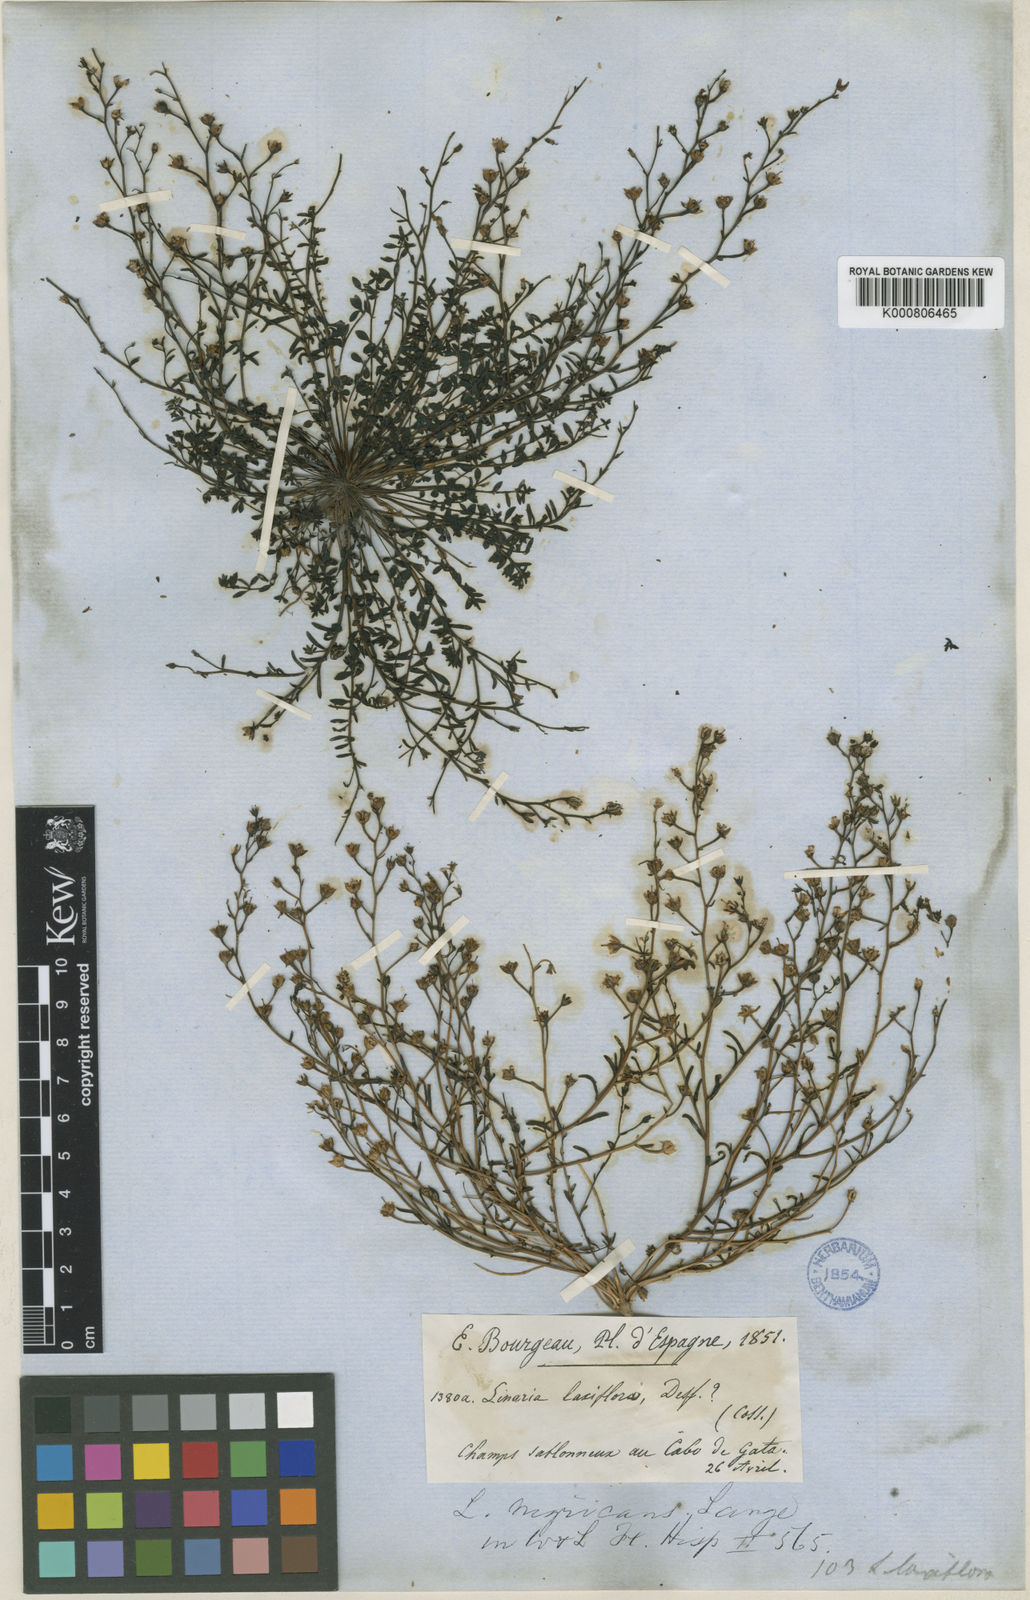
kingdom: Plantae
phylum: Tracheophyta
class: Magnoliopsida
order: Lamiales
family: Plantaginaceae
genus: Linaria
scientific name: Linaria nigricans
